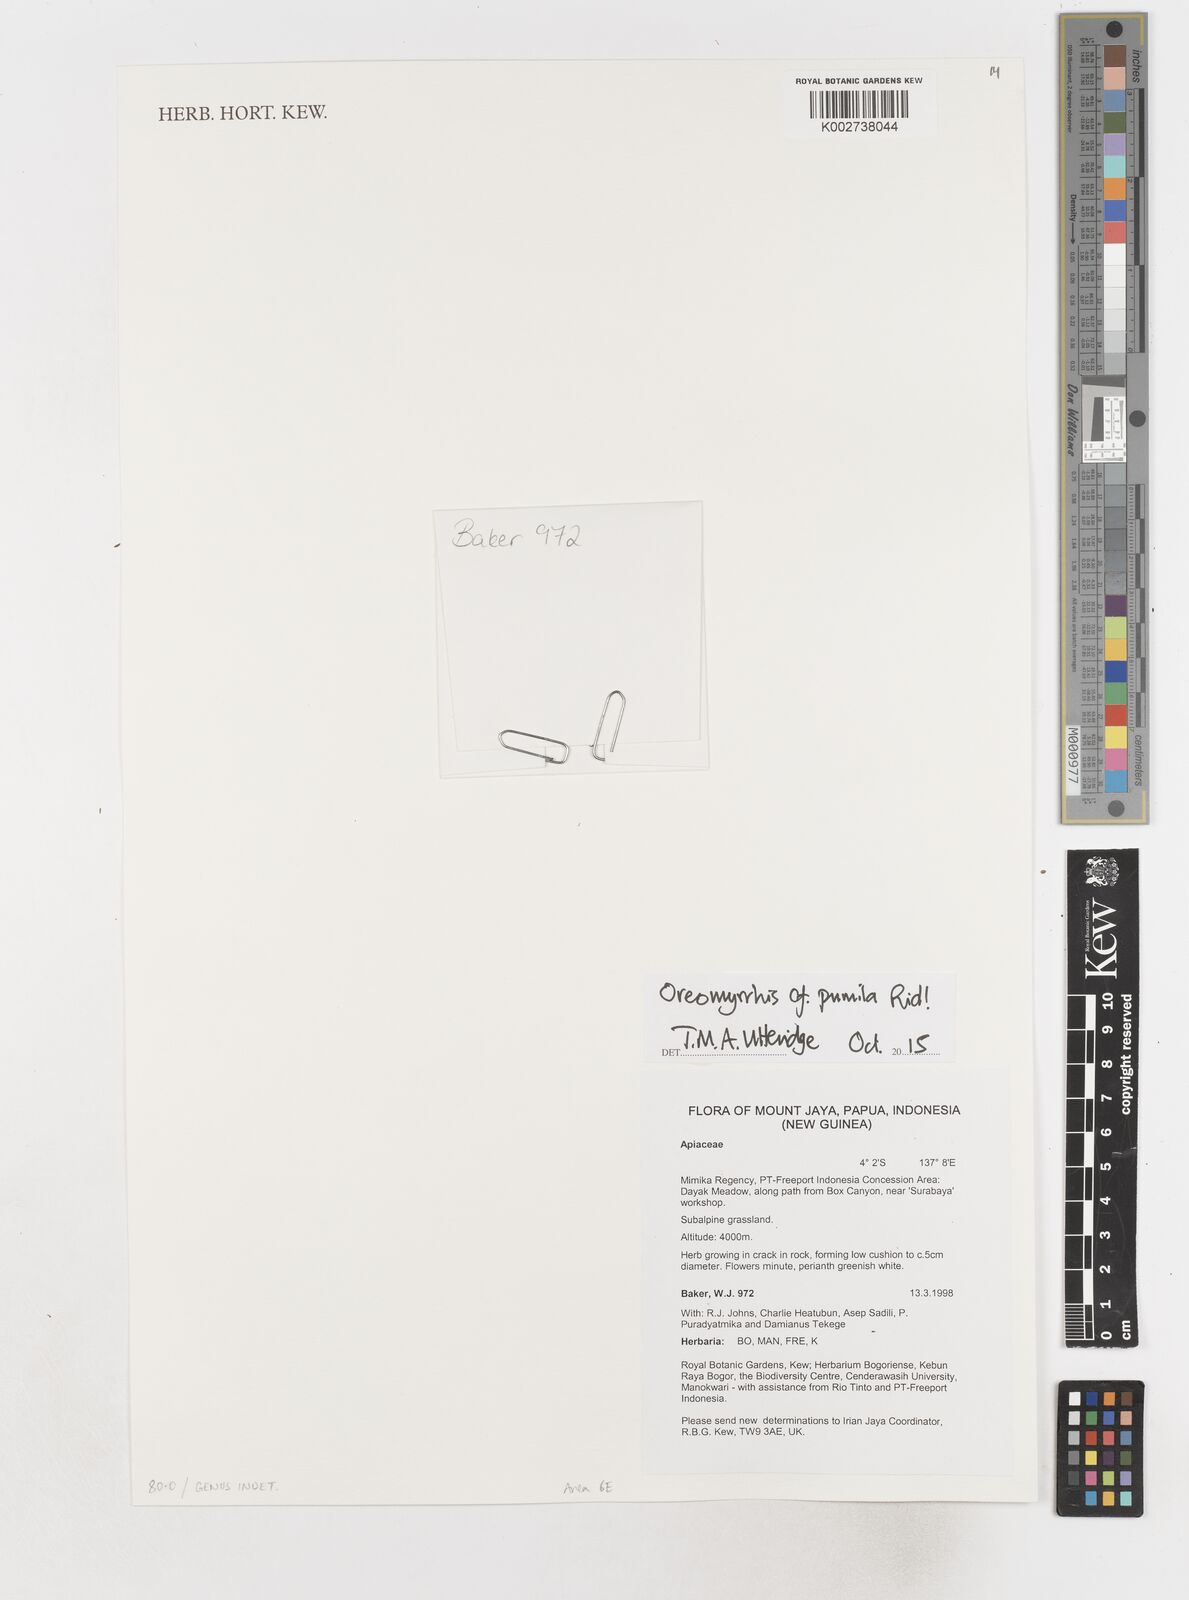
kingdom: Plantae
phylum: Tracheophyta
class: Magnoliopsida
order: Apiales
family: Apiaceae
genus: Chaerophyllum
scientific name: Chaerophyllum pumilum
